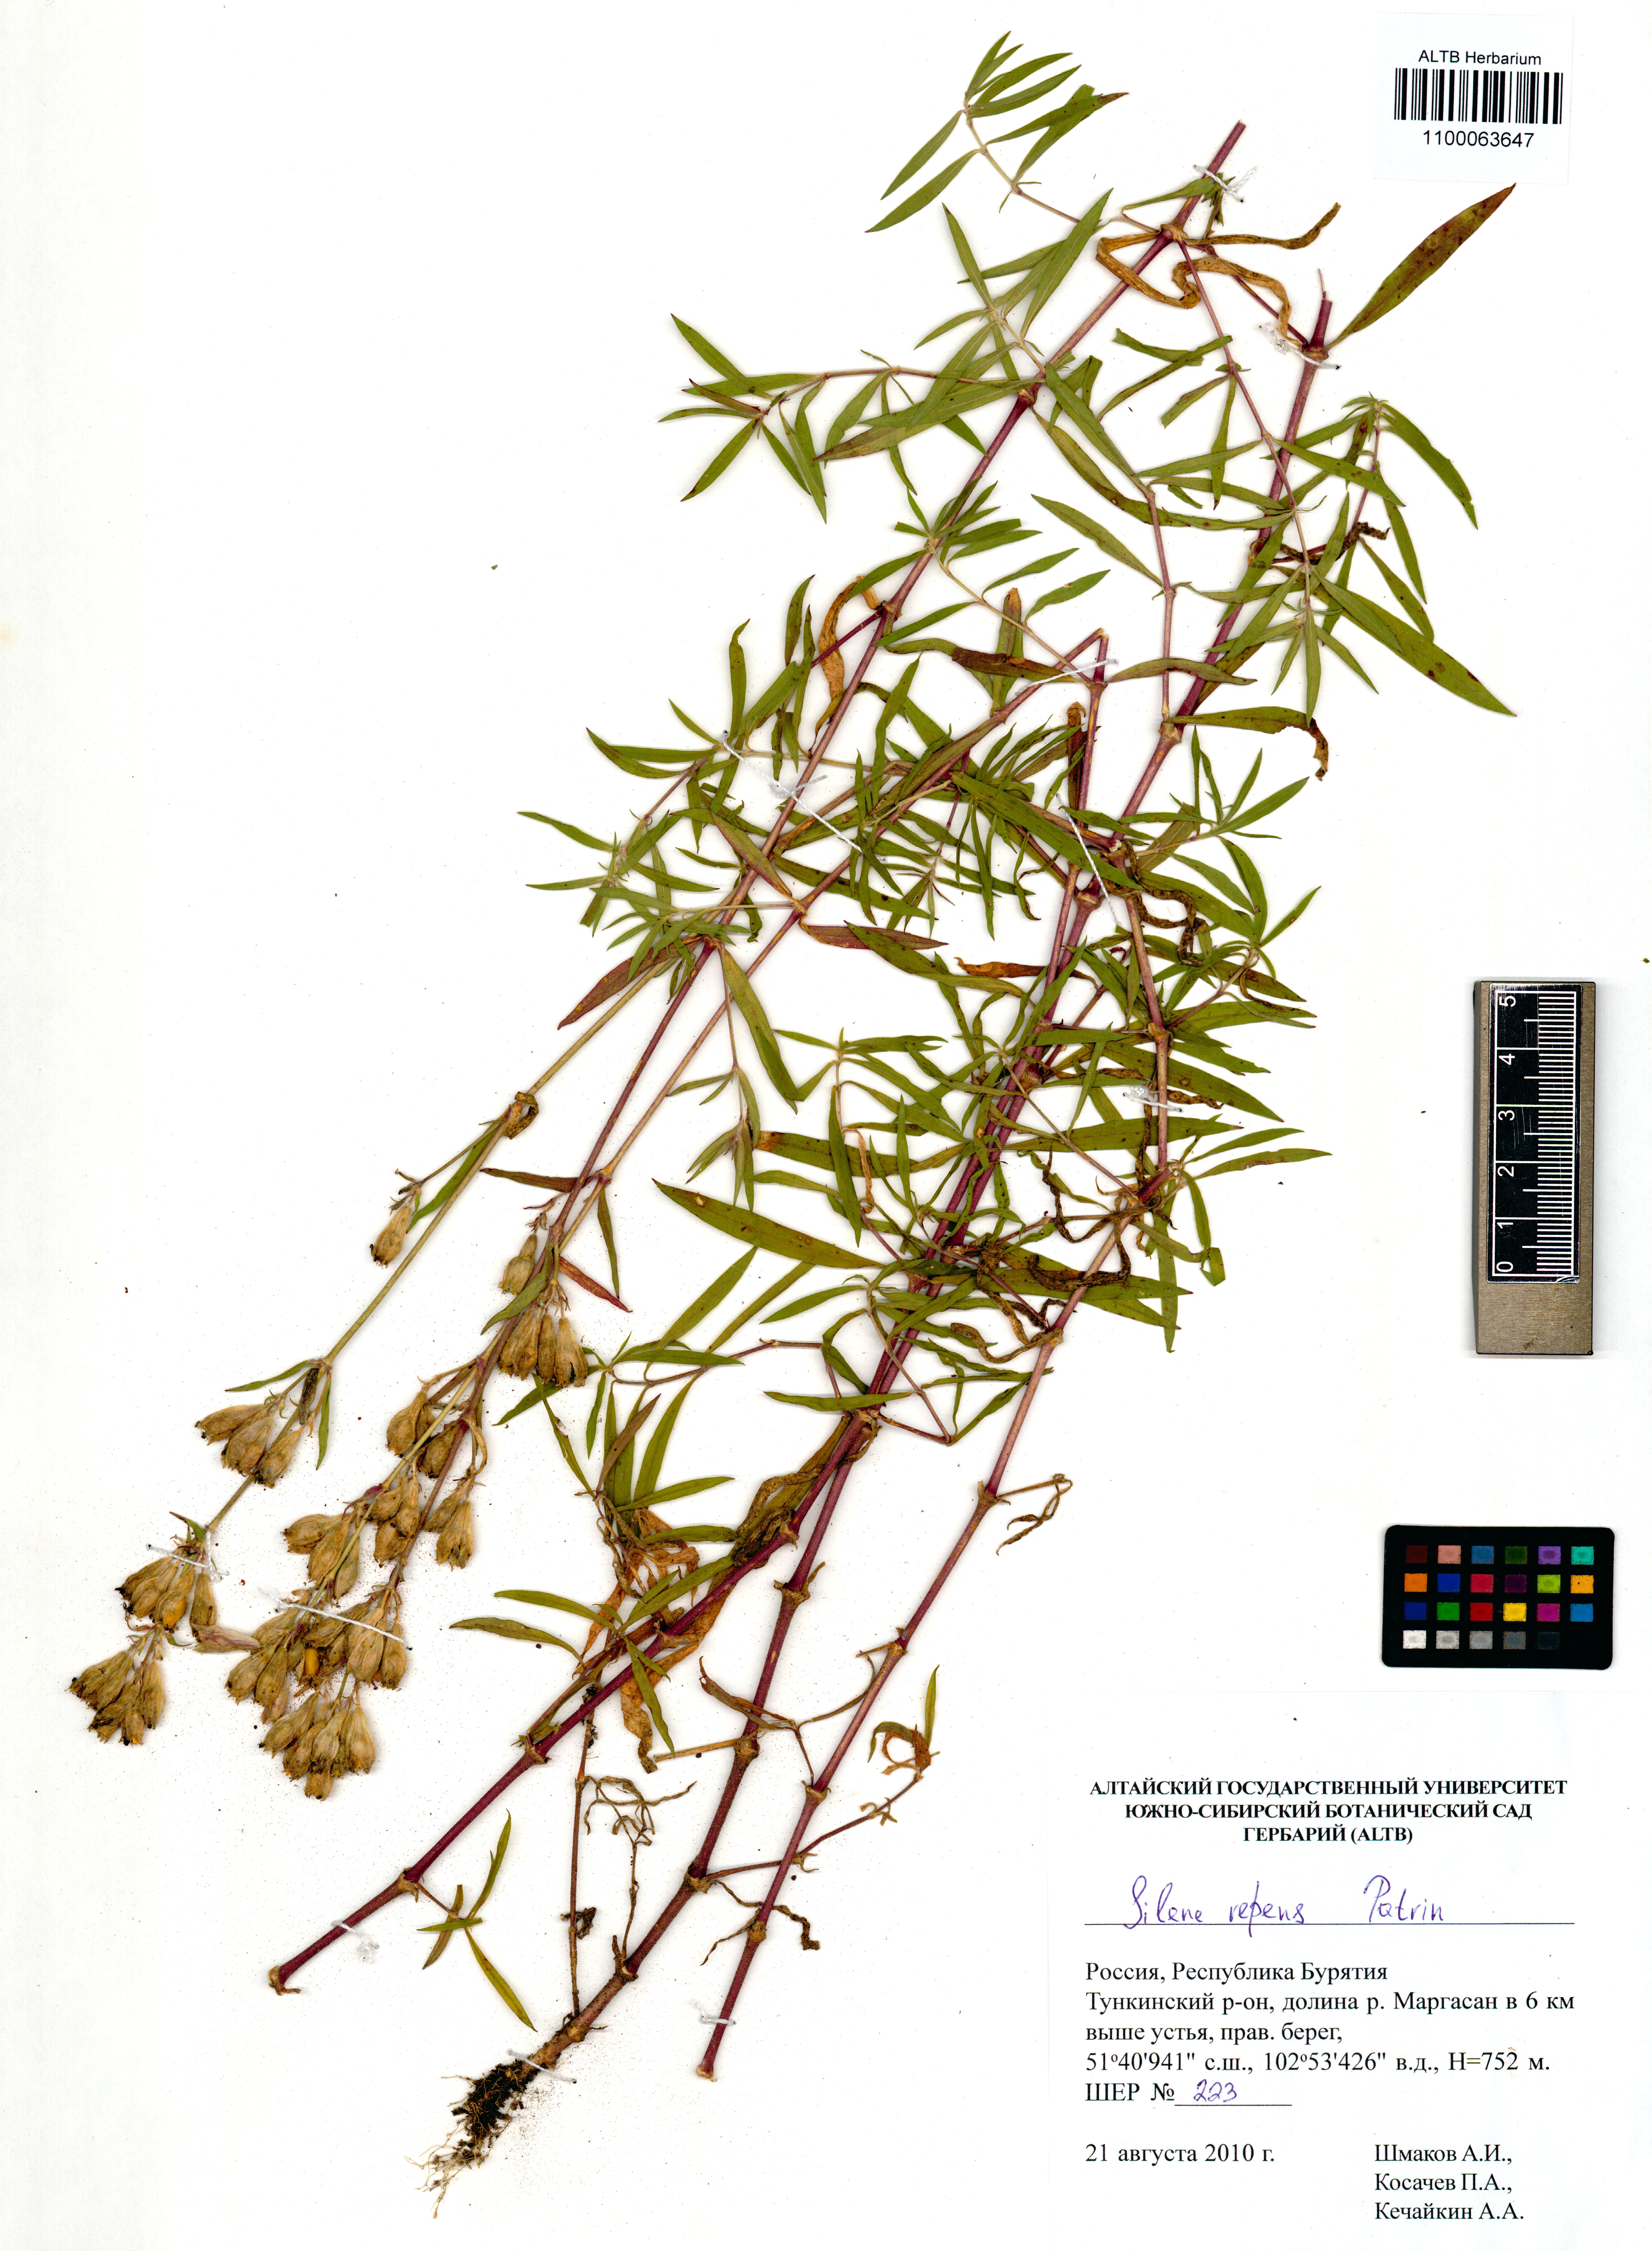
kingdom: Plantae
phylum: Tracheophyta
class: Magnoliopsida
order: Caryophyllales
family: Caryophyllaceae
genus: Silene
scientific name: Silene repens
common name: Pink campion
